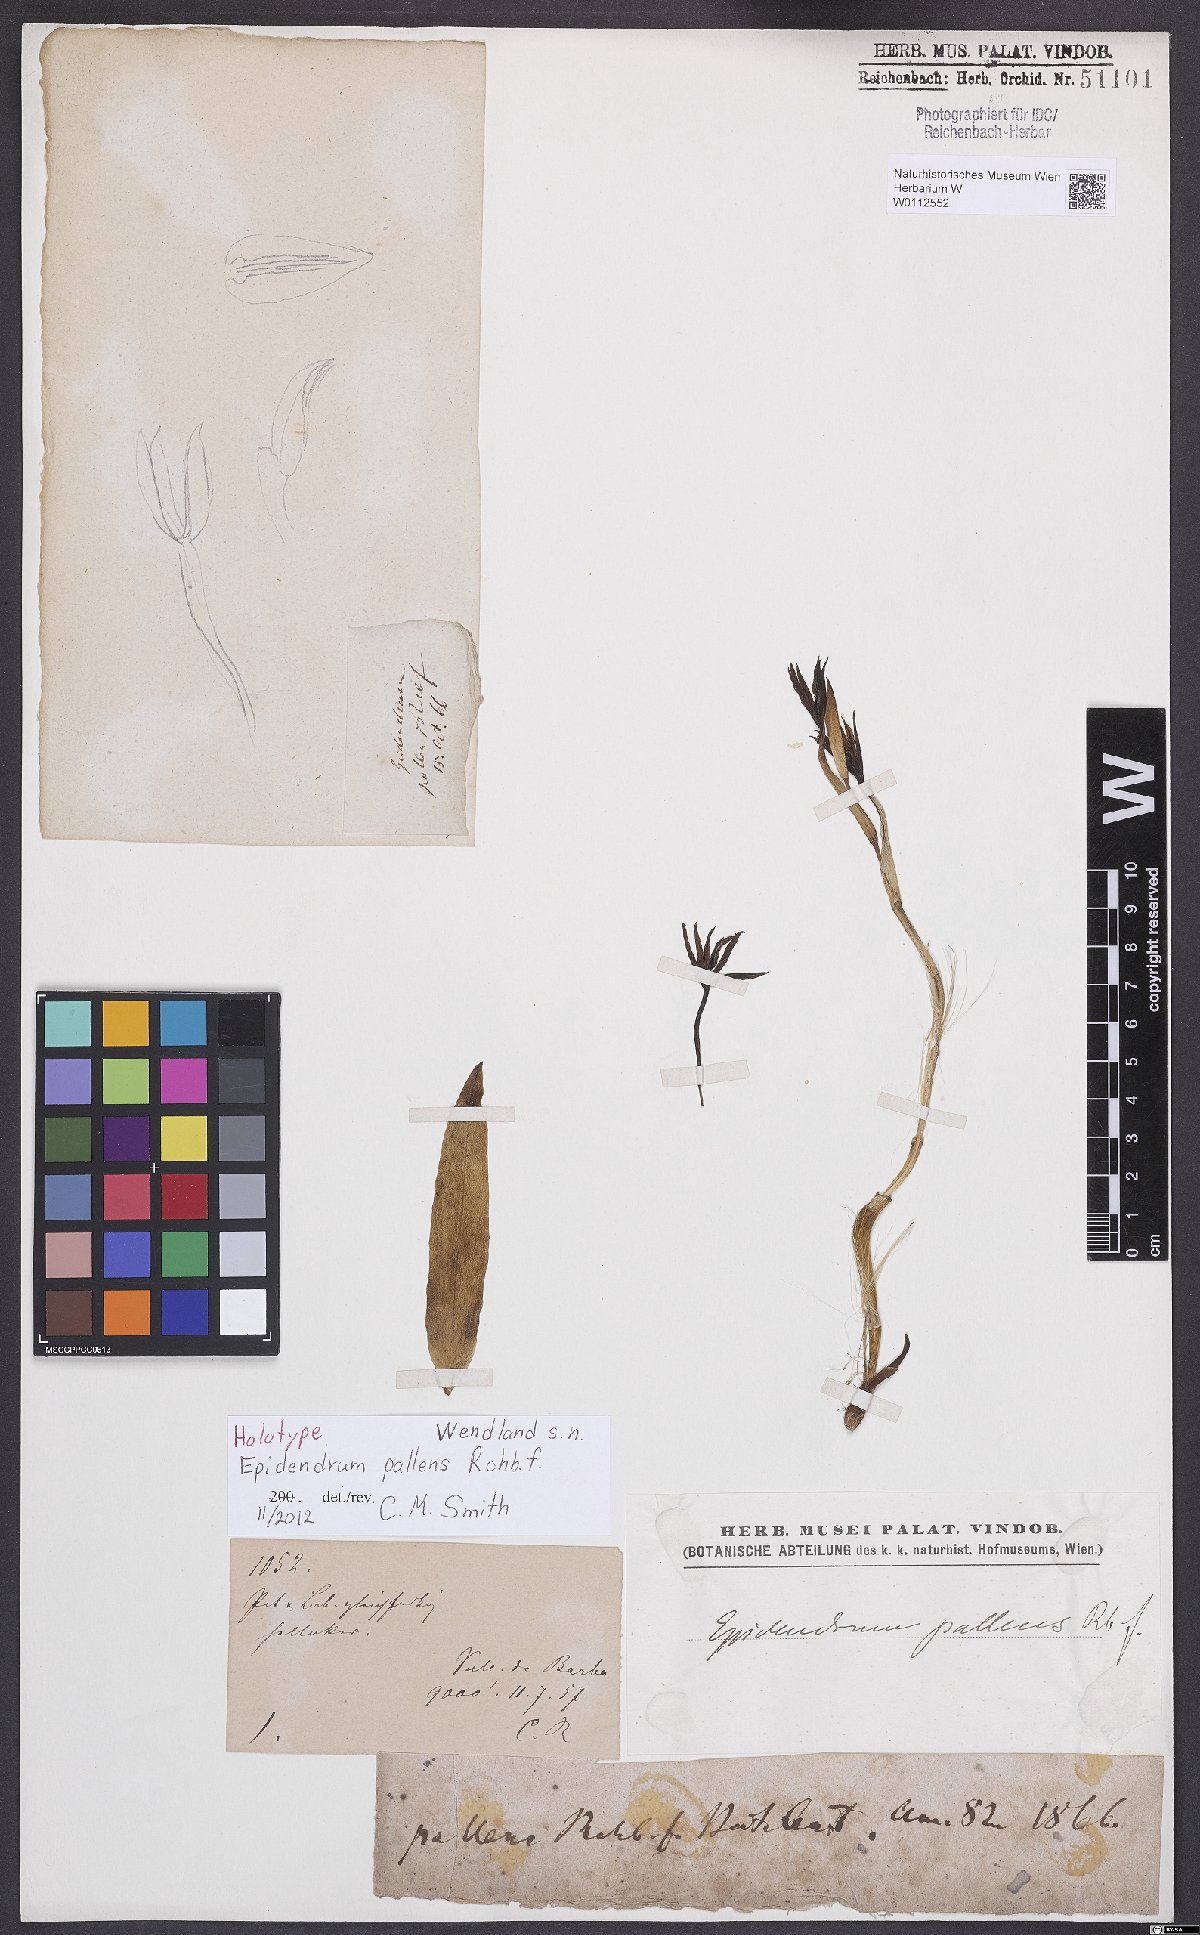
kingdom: Plantae
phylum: Tracheophyta
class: Liliopsida
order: Asparagales
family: Orchidaceae
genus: Epidendrum
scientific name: Epidendrum pallens
